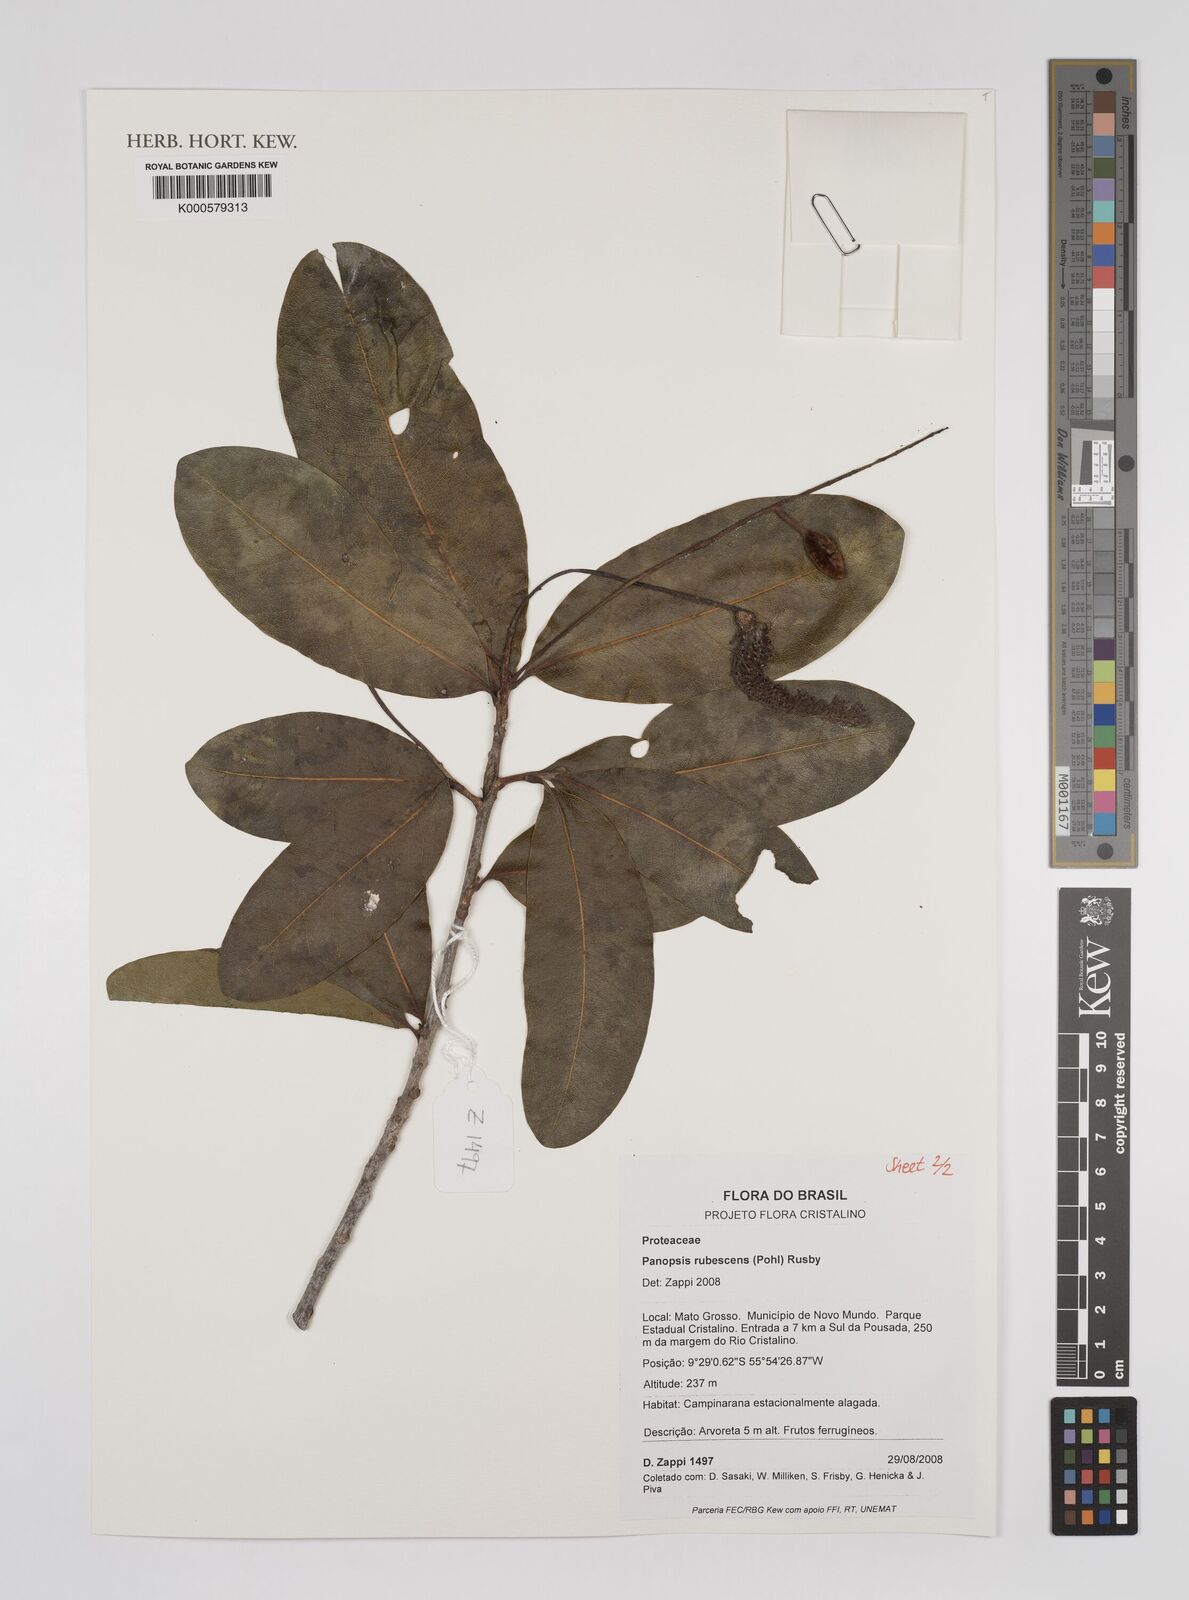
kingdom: Plantae
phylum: Tracheophyta
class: Magnoliopsida
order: Proteales
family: Proteaceae
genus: Panopsis
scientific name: Panopsis
